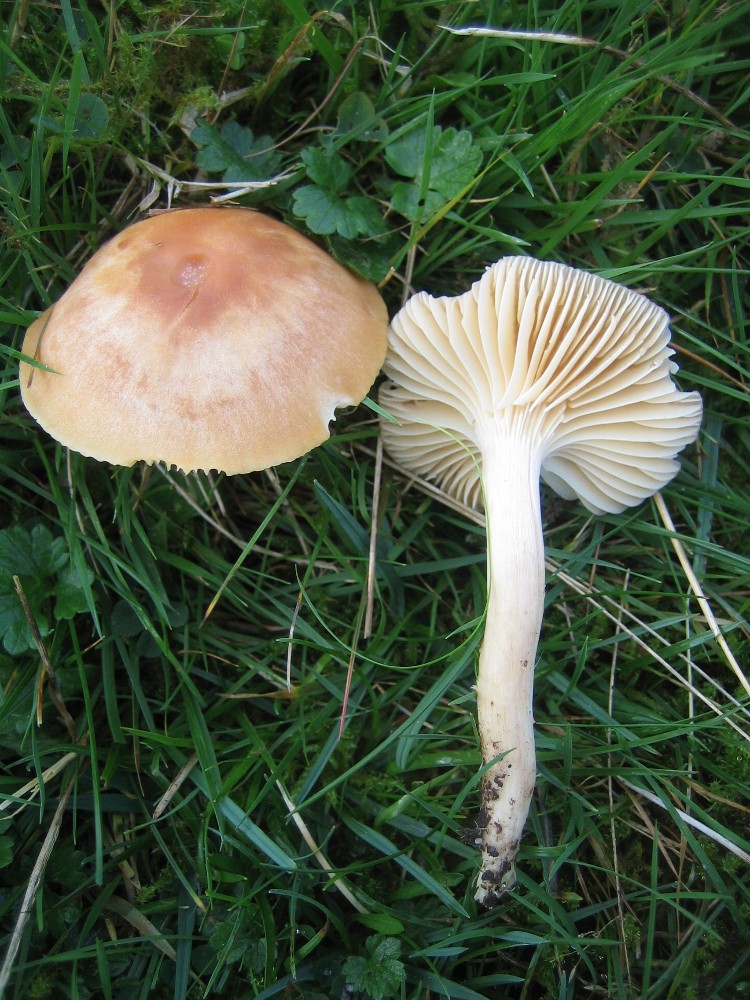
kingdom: Fungi
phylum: Basidiomycota
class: Agaricomycetes
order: Agaricales
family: Hygrophoraceae
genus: Cuphophyllus
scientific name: Cuphophyllus pratensis
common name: eng-vokshat
